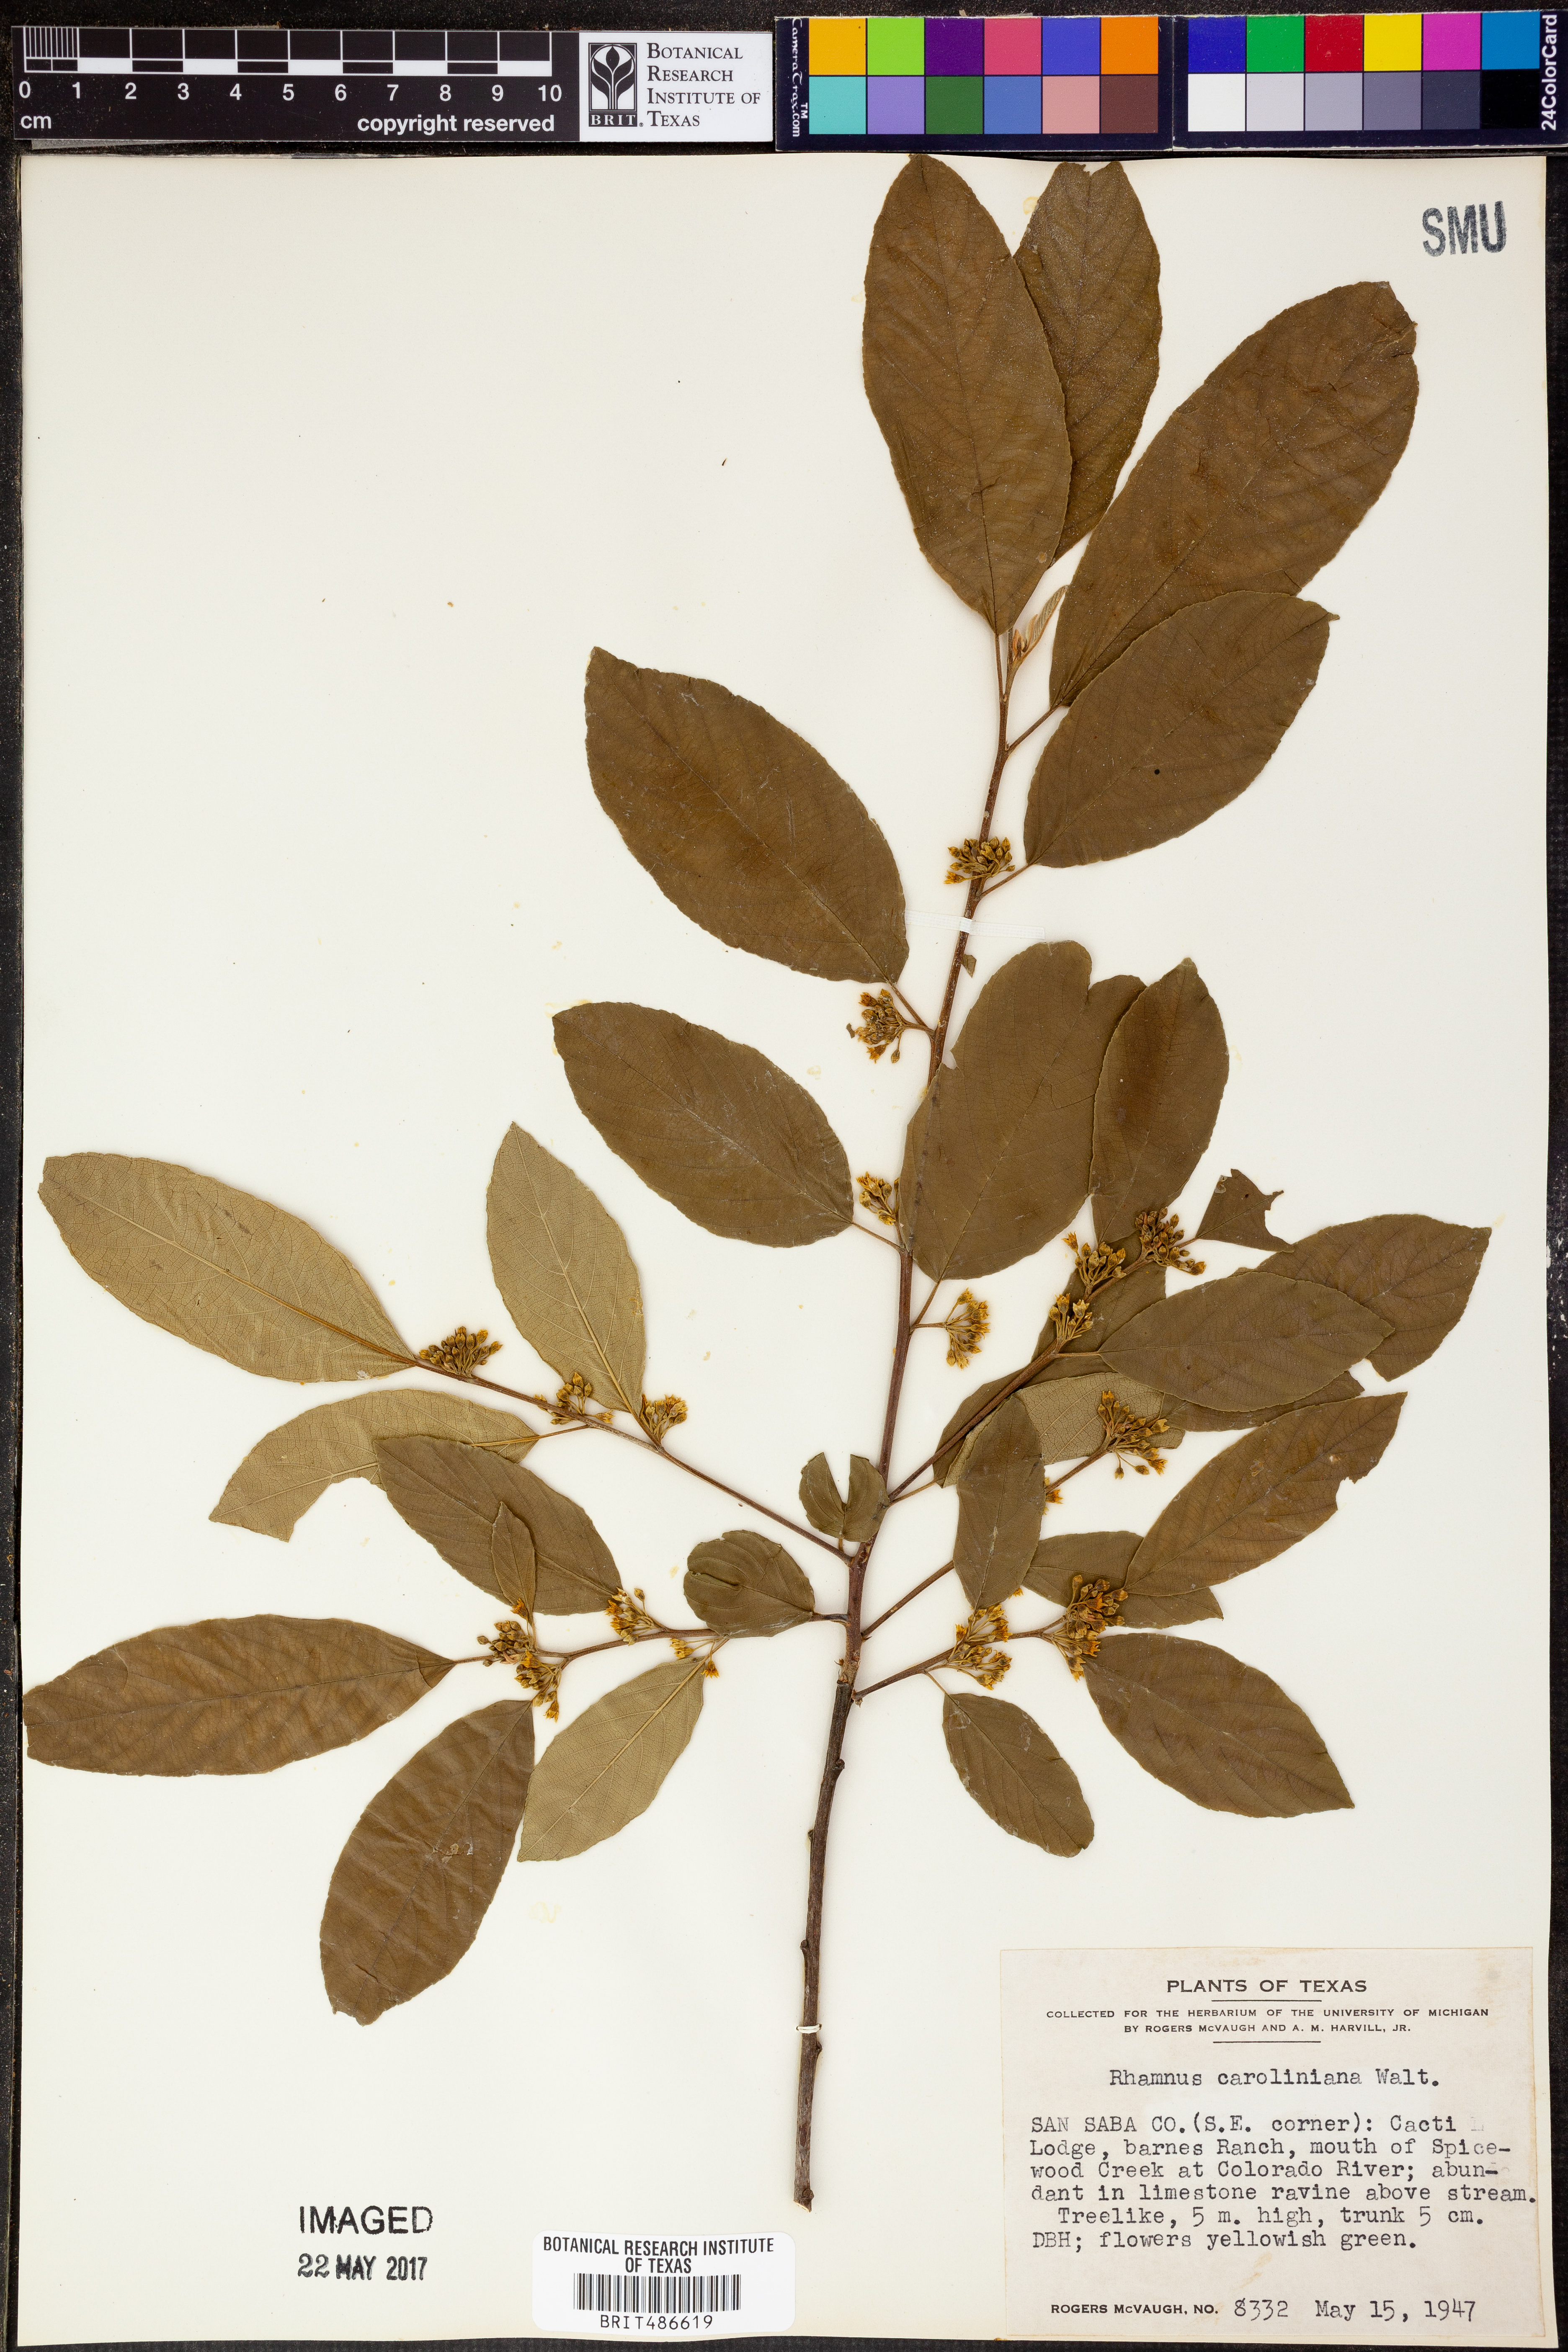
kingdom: Plantae
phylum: Tracheophyta
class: Magnoliopsida
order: Rosales
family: Rhamnaceae
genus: Frangula
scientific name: Frangula caroliniana
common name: Carolina buckthorn
